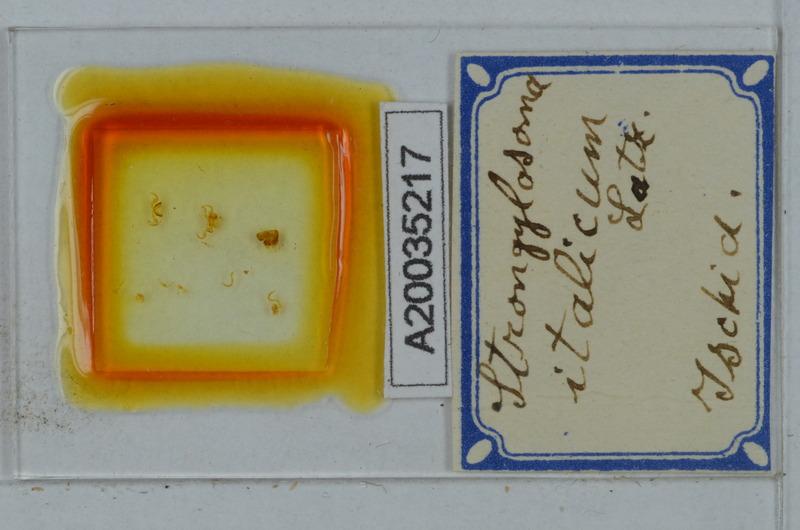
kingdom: Animalia
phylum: Arthropoda
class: Diplopoda
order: Polydesmida
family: Paradoxosomatidae
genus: Strongylosoma
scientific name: Strongylosoma italica
